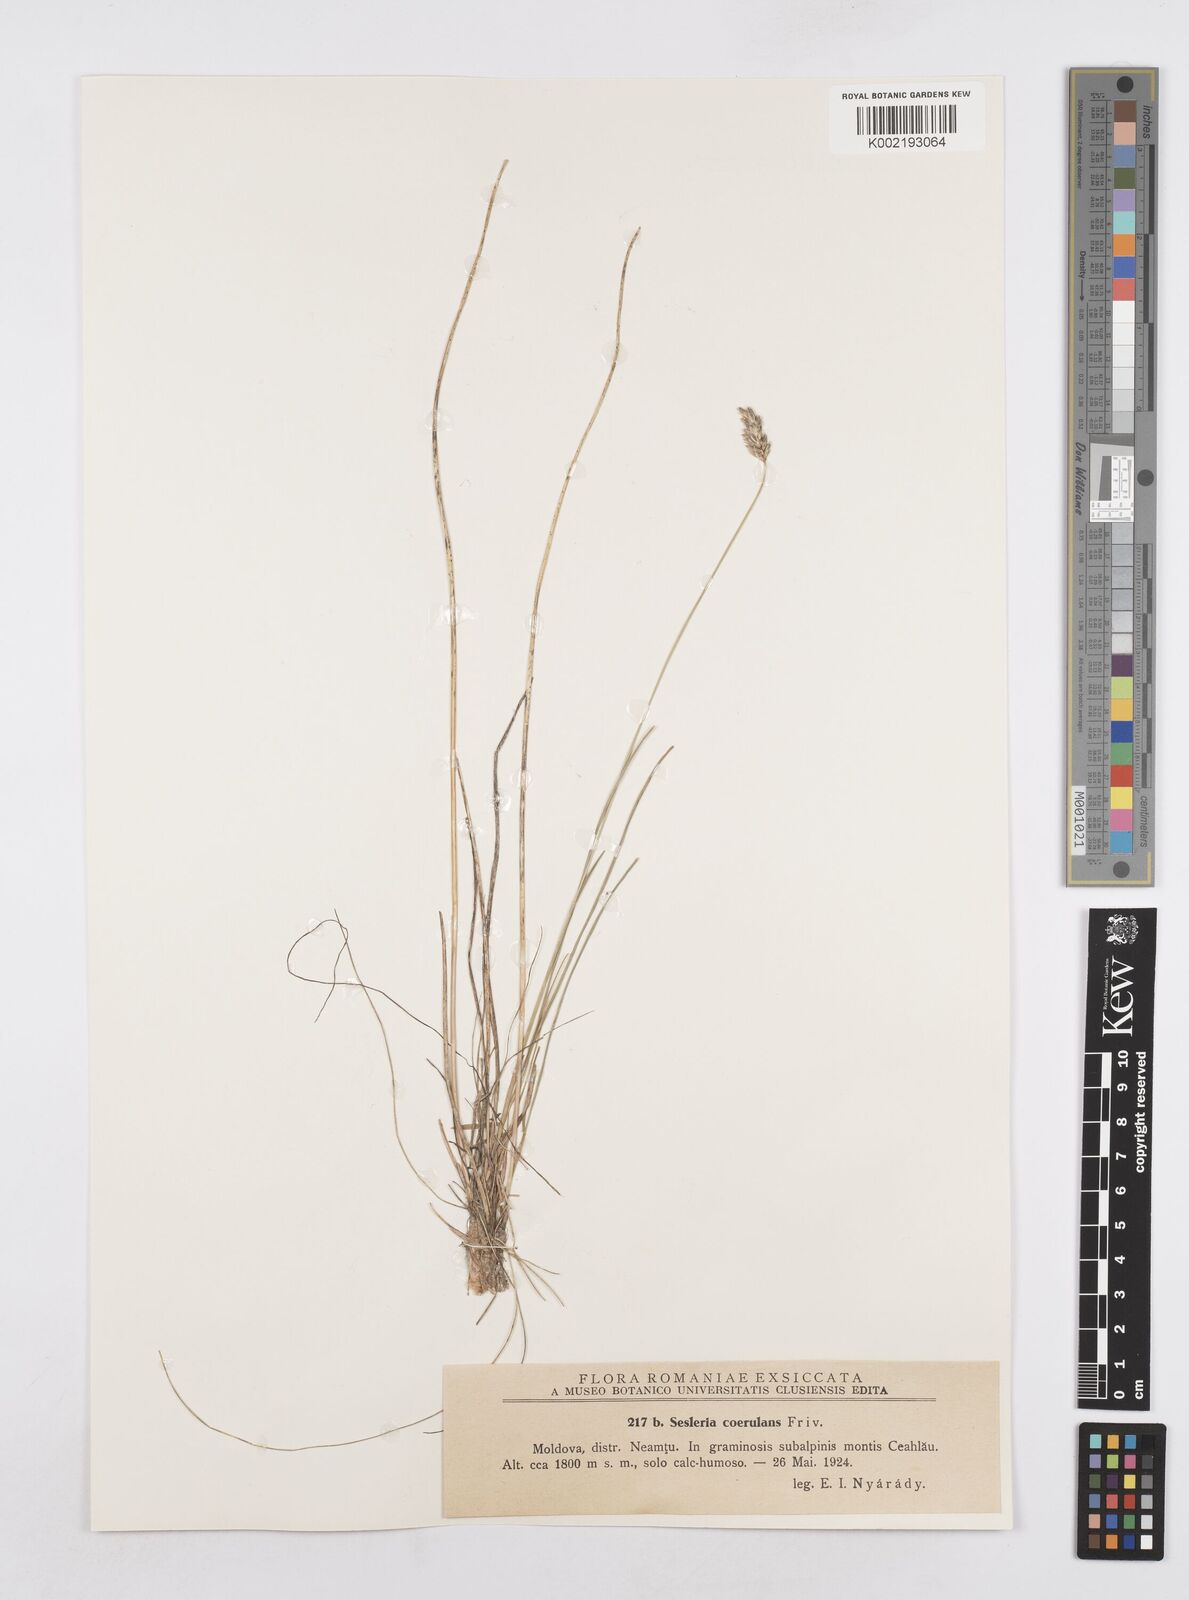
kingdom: Plantae
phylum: Tracheophyta
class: Liliopsida
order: Poales
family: Poaceae
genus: Sesleria
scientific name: Sesleria caerulea
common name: Blue moor-grass
